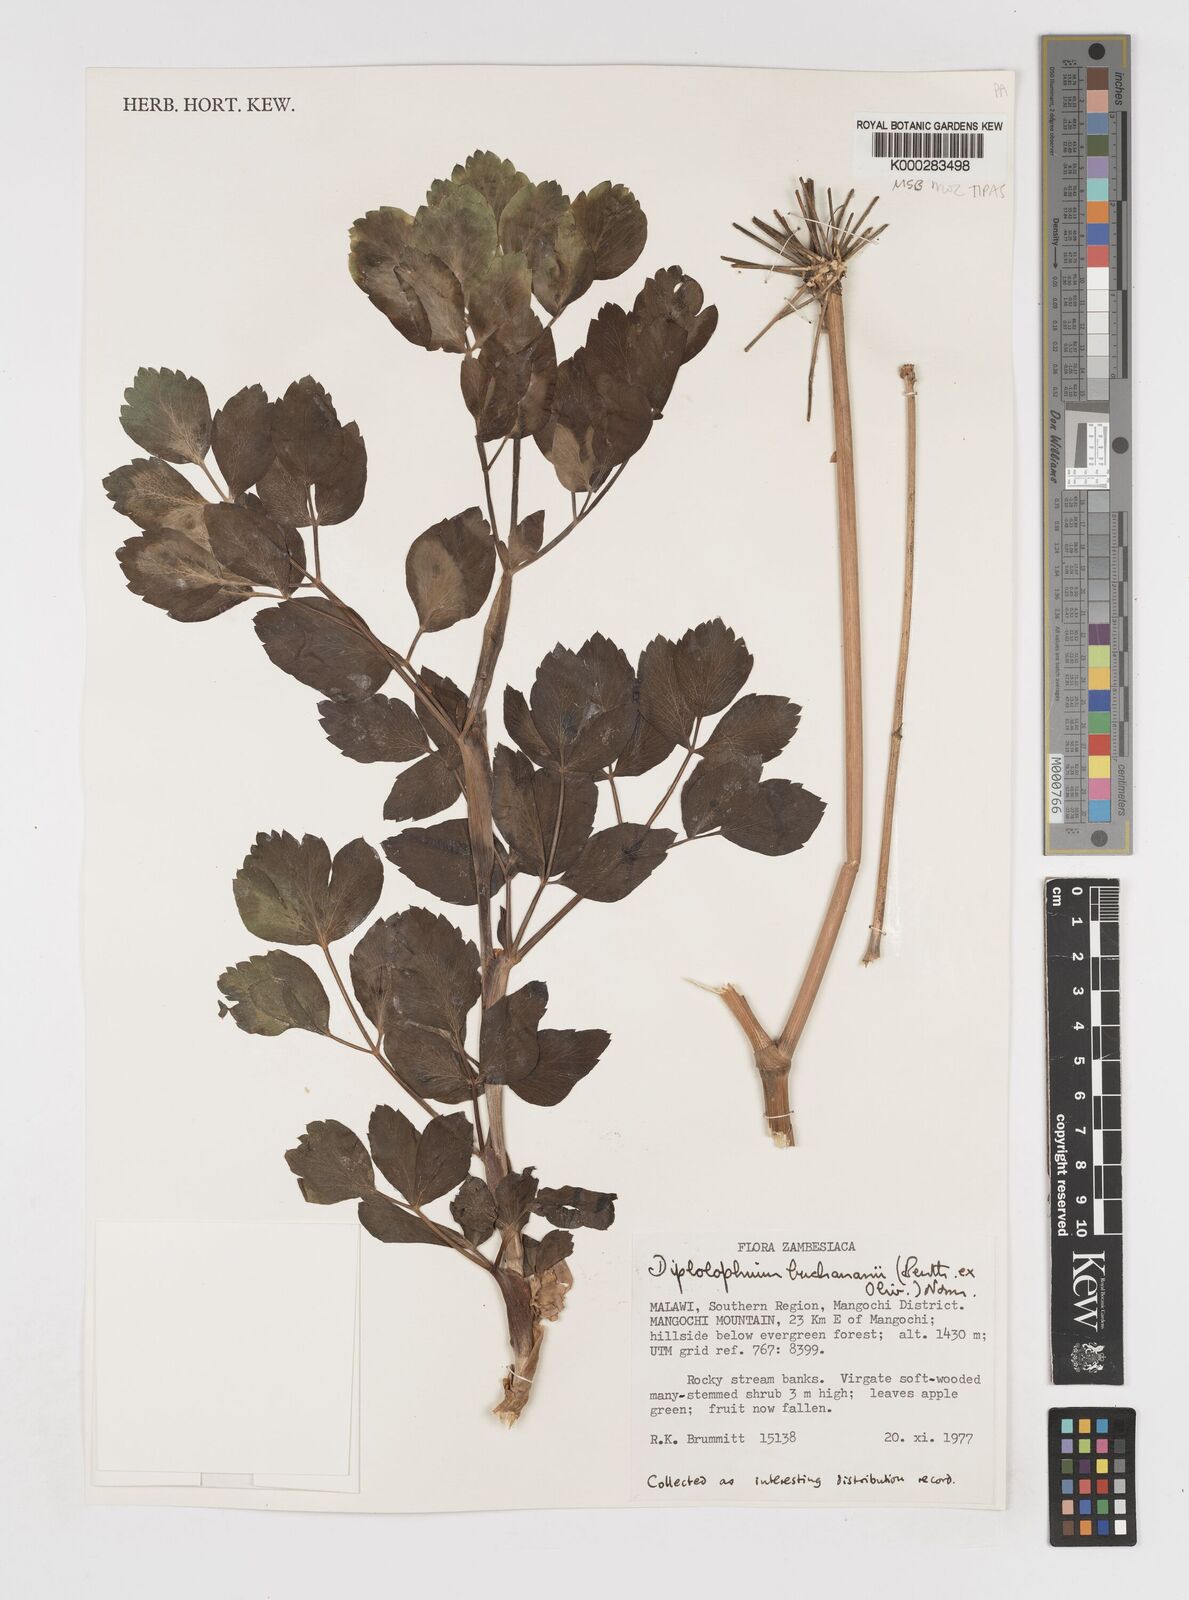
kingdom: Plantae
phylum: Tracheophyta
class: Magnoliopsida
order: Apiales
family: Apiaceae
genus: Diplolophium
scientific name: Diplolophium buchananii
